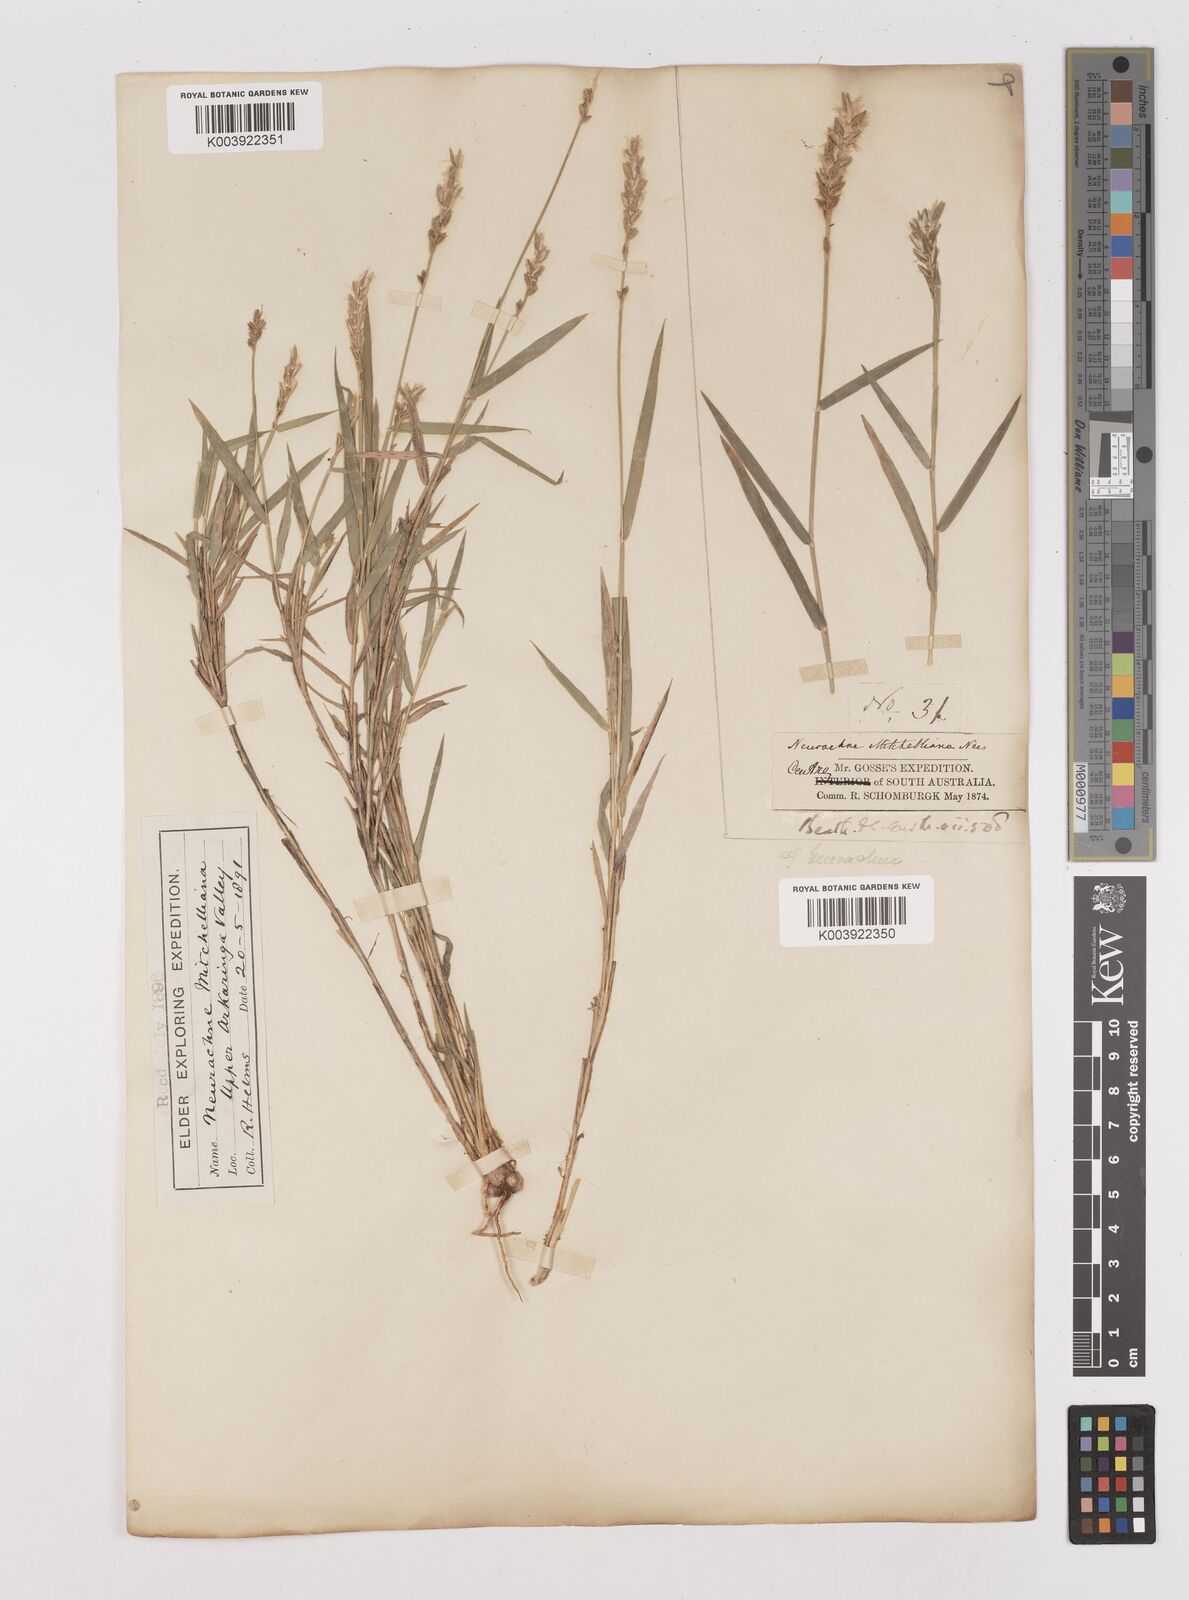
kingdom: Plantae
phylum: Tracheophyta
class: Liliopsida
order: Poales
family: Poaceae
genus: Thyridolepis
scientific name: Thyridolepis mitchelliana
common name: Rock tassel grass
